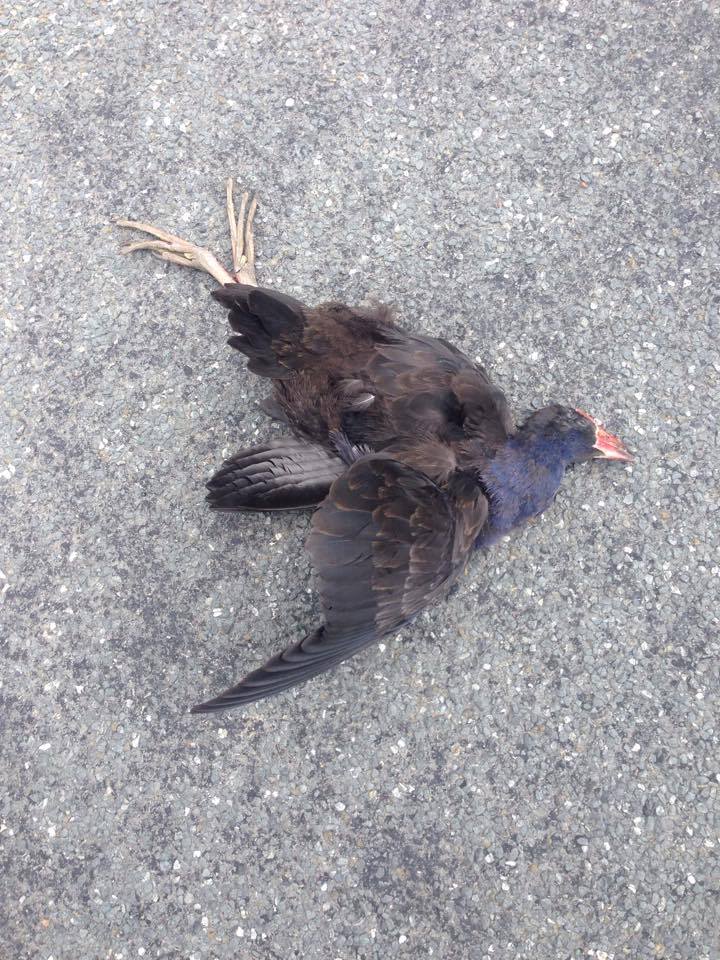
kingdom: Animalia
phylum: Chordata
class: Aves
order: Gruiformes
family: Rallidae
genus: Porphyrio
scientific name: Porphyrio melanotus
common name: Australasian swamphen
